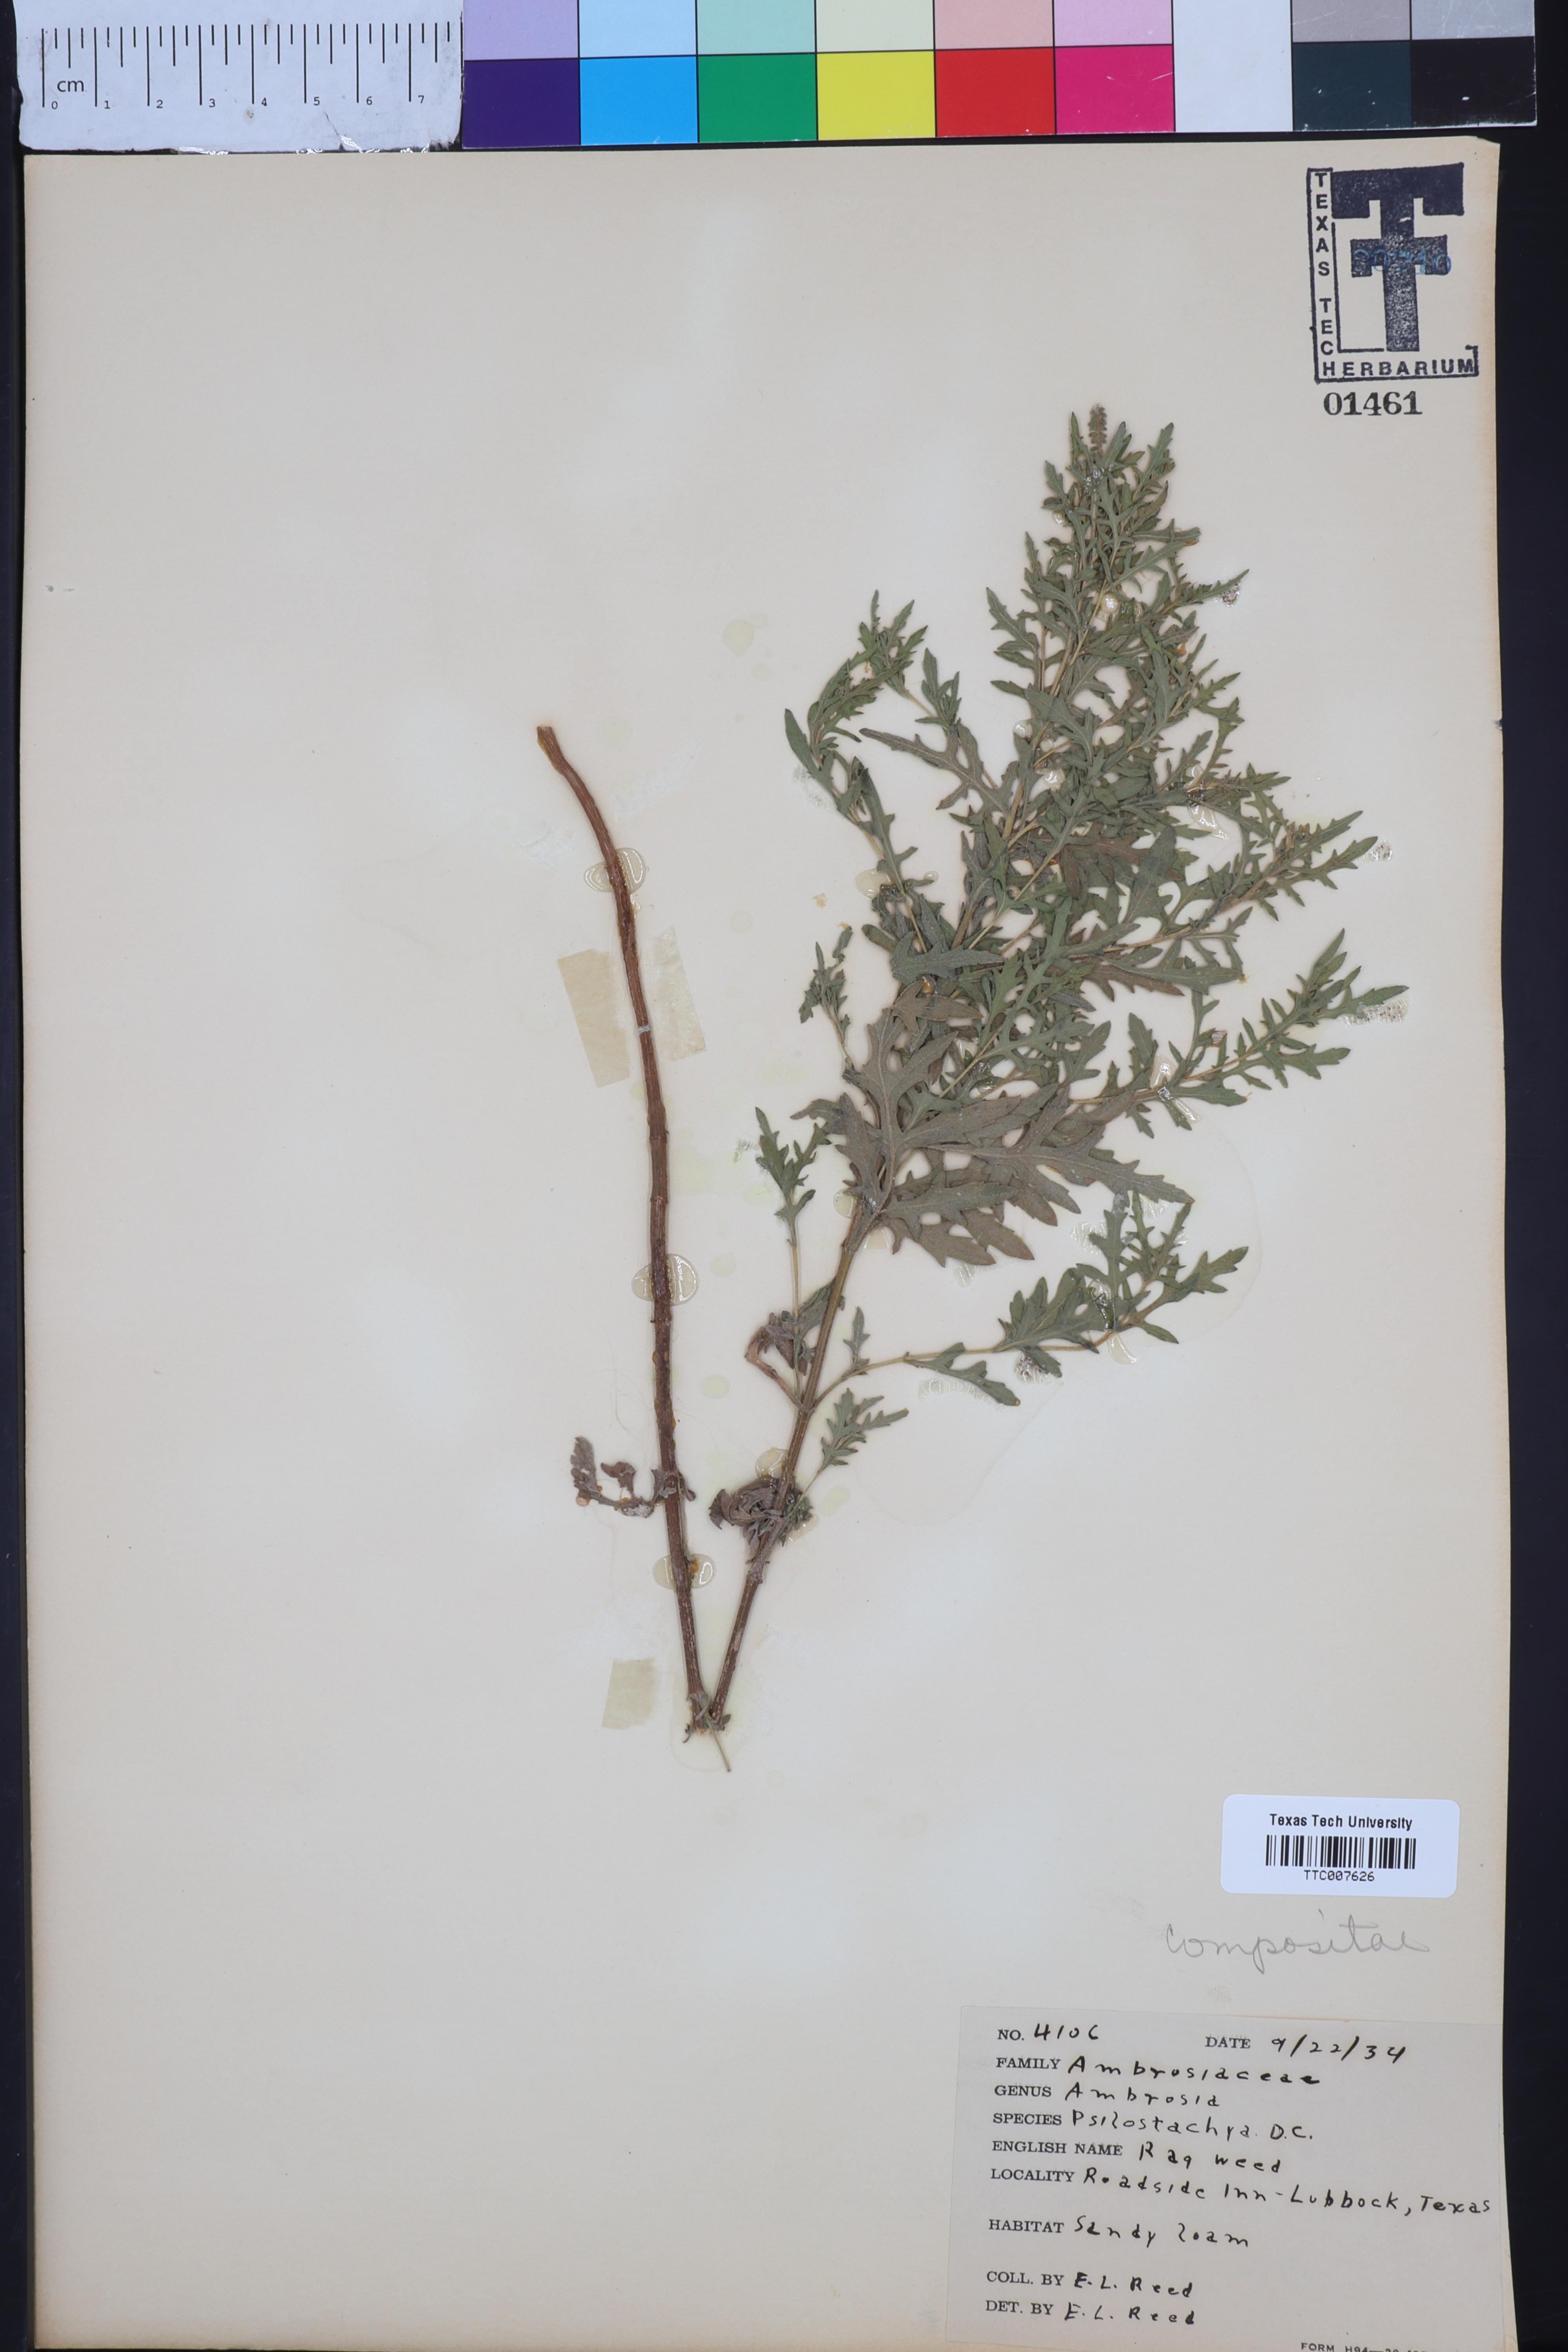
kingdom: Plantae
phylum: Tracheophyta
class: Magnoliopsida
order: Asterales
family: Asteraceae
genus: Ambrosia
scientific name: Ambrosia psilostachya
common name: Perennial ragweed
